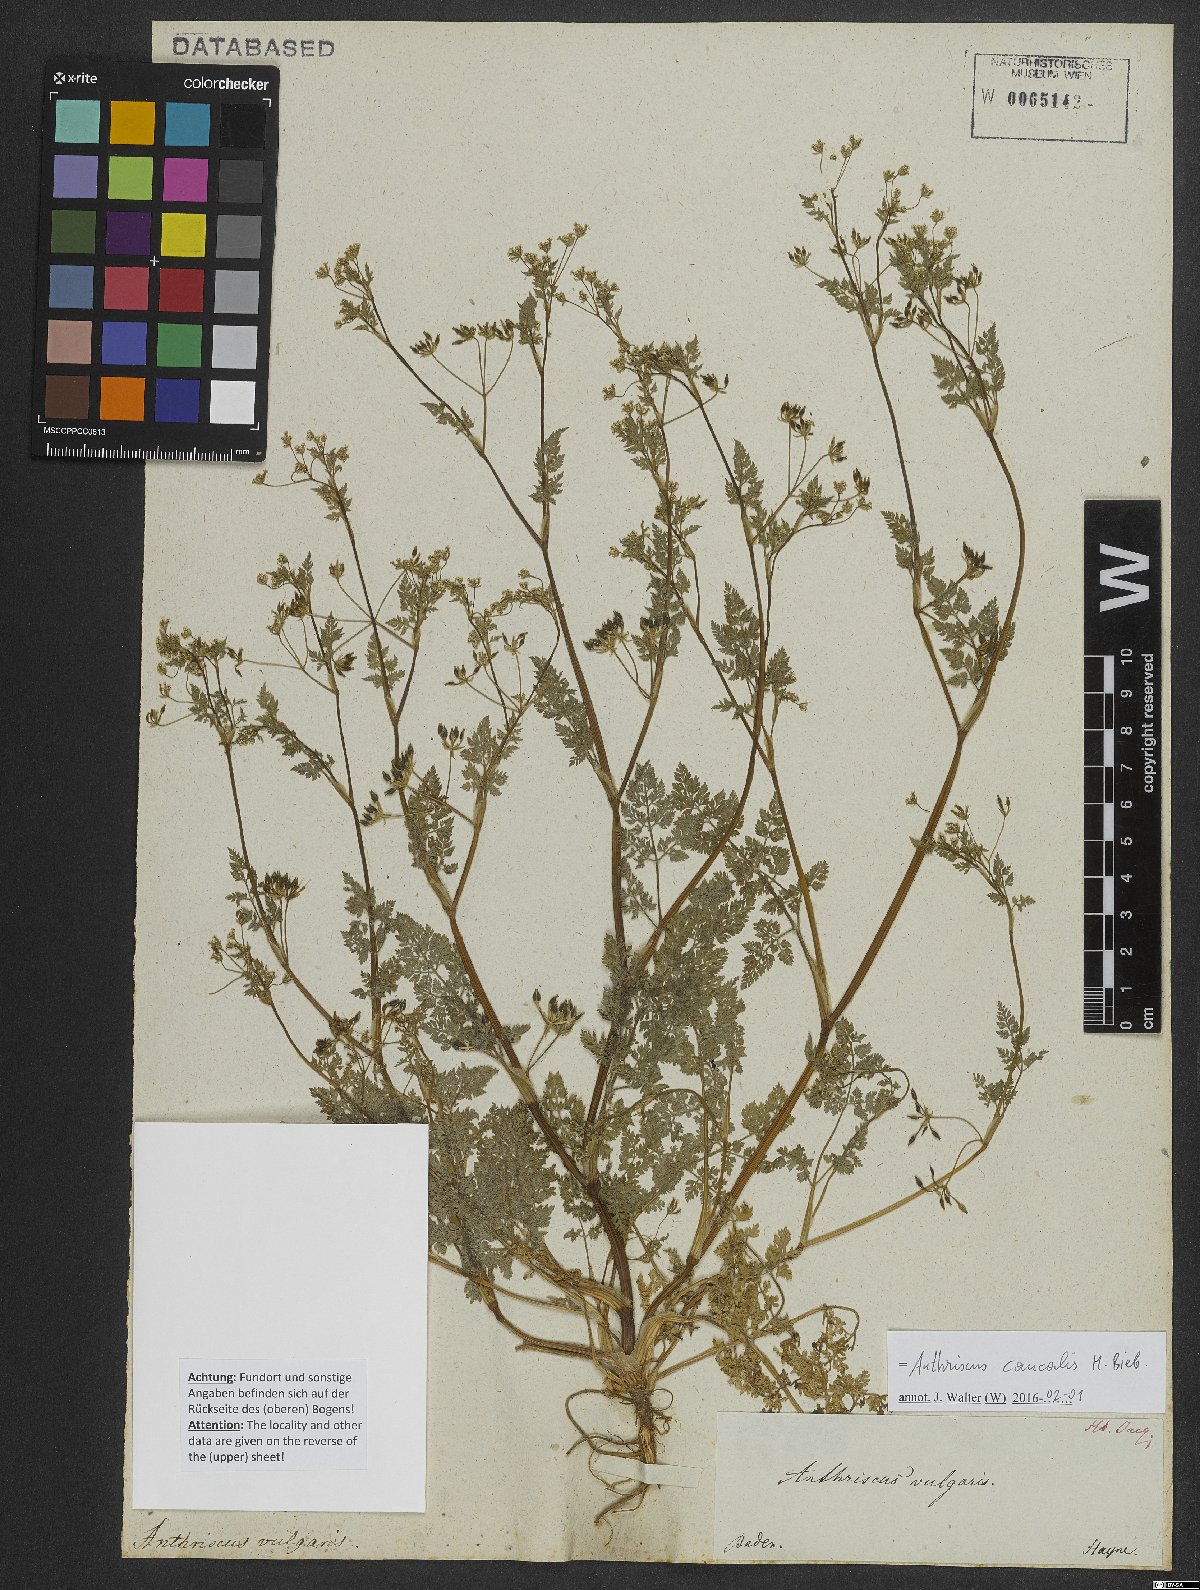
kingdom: Plantae
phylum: Tracheophyta
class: Magnoliopsida
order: Apiales
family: Apiaceae
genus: Anthriscus
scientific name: Anthriscus caucalis
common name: Bur chervil
